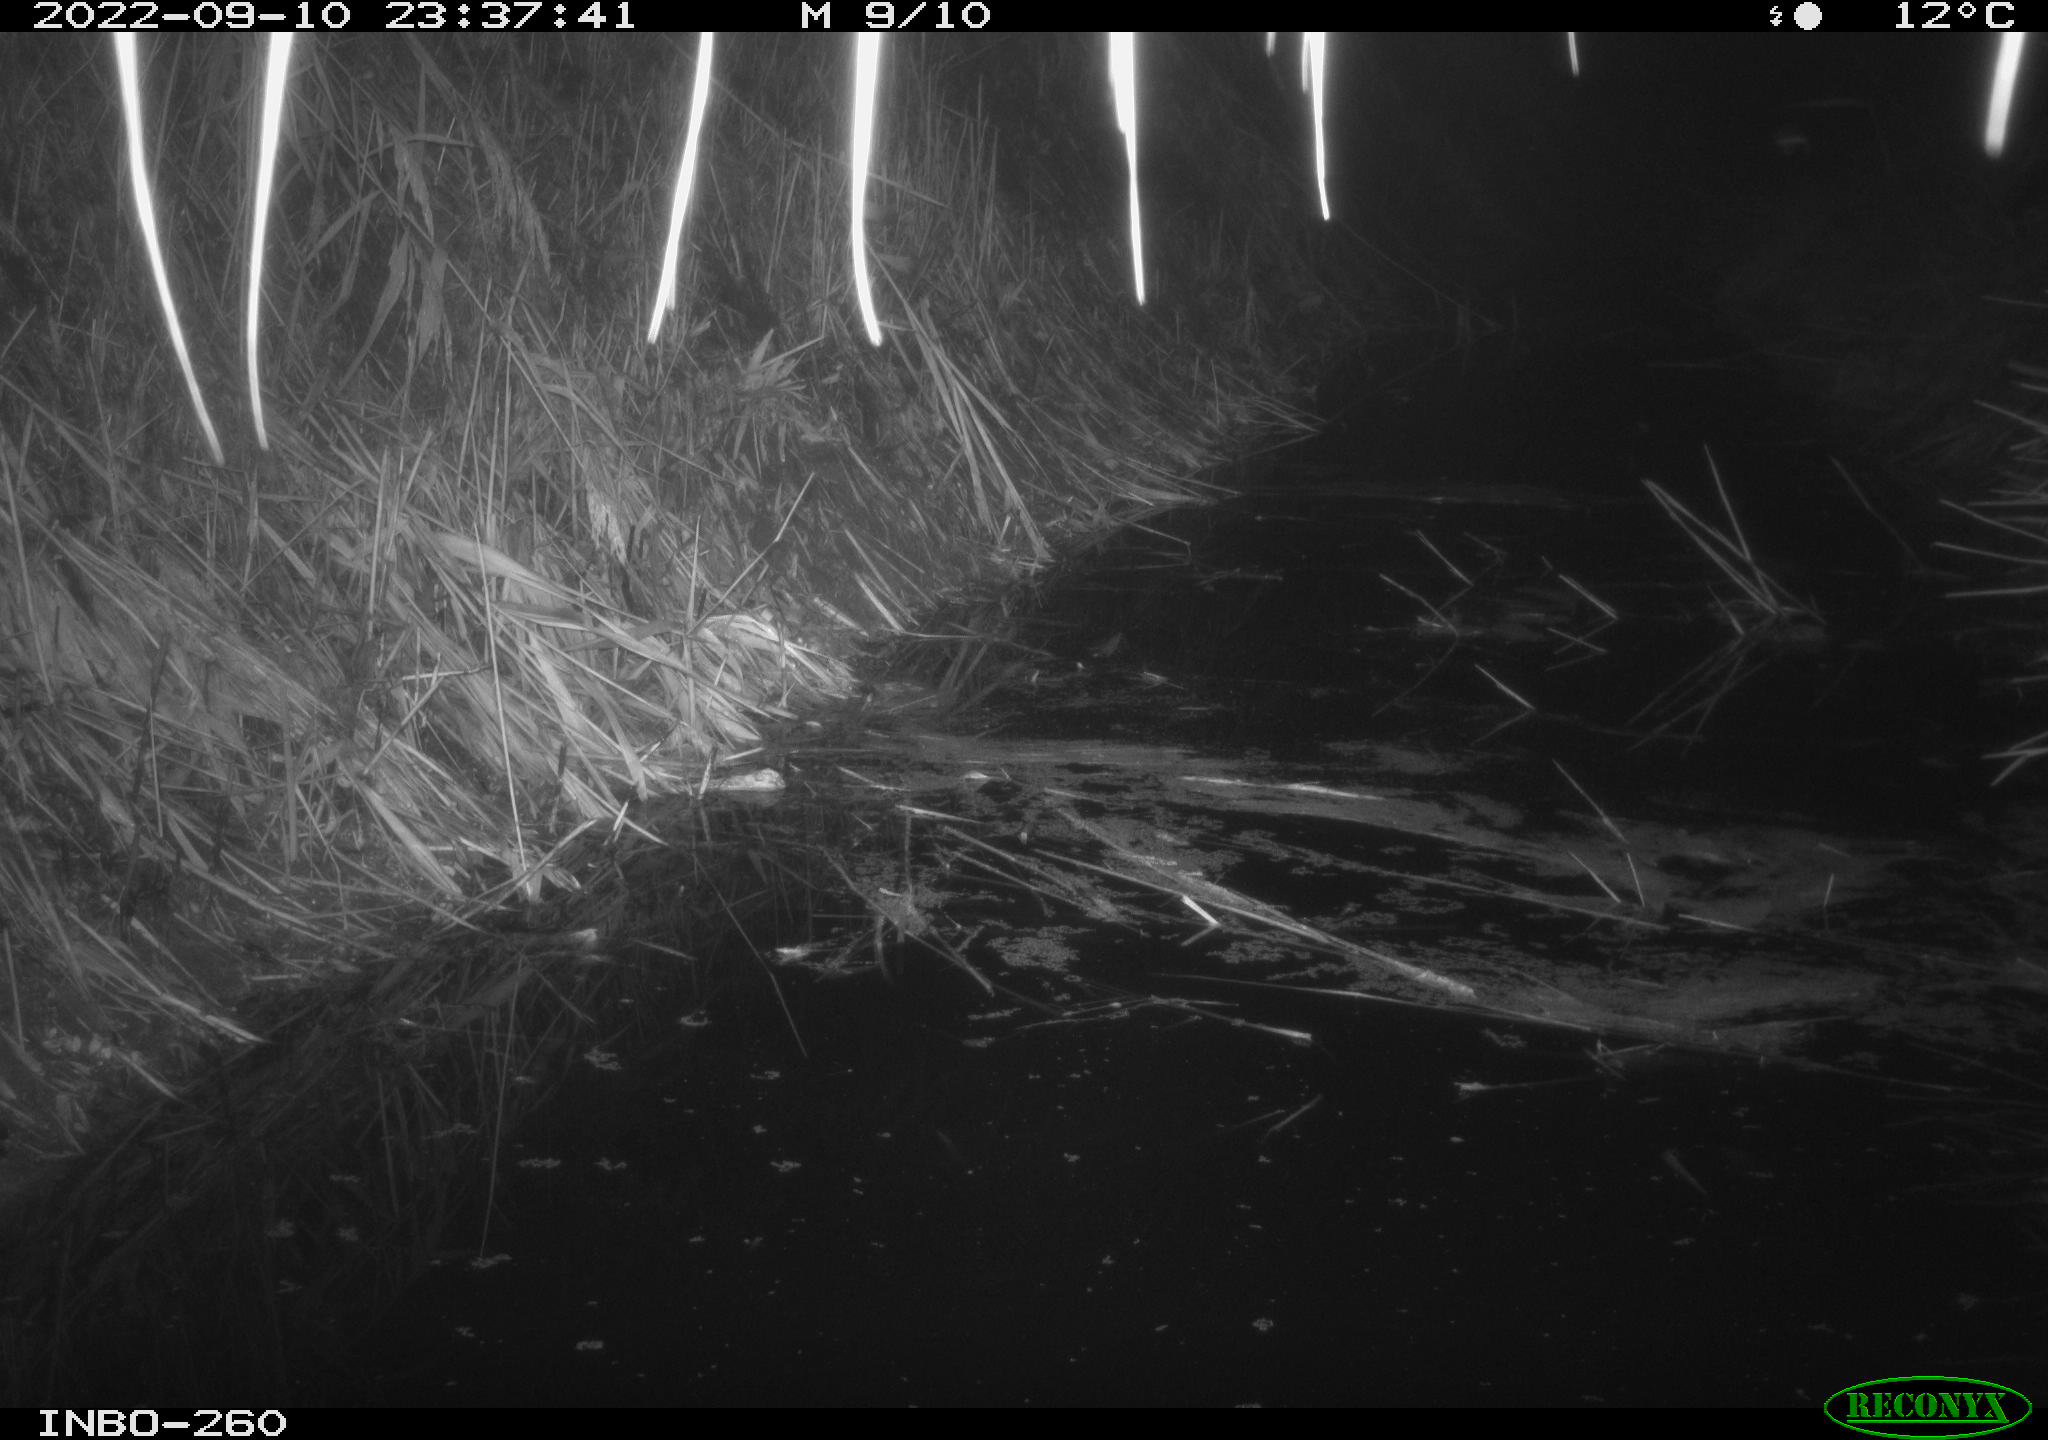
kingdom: Animalia
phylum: Chordata
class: Mammalia
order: Rodentia
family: Muridae
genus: Rattus
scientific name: Rattus norvegicus
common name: Brown rat
